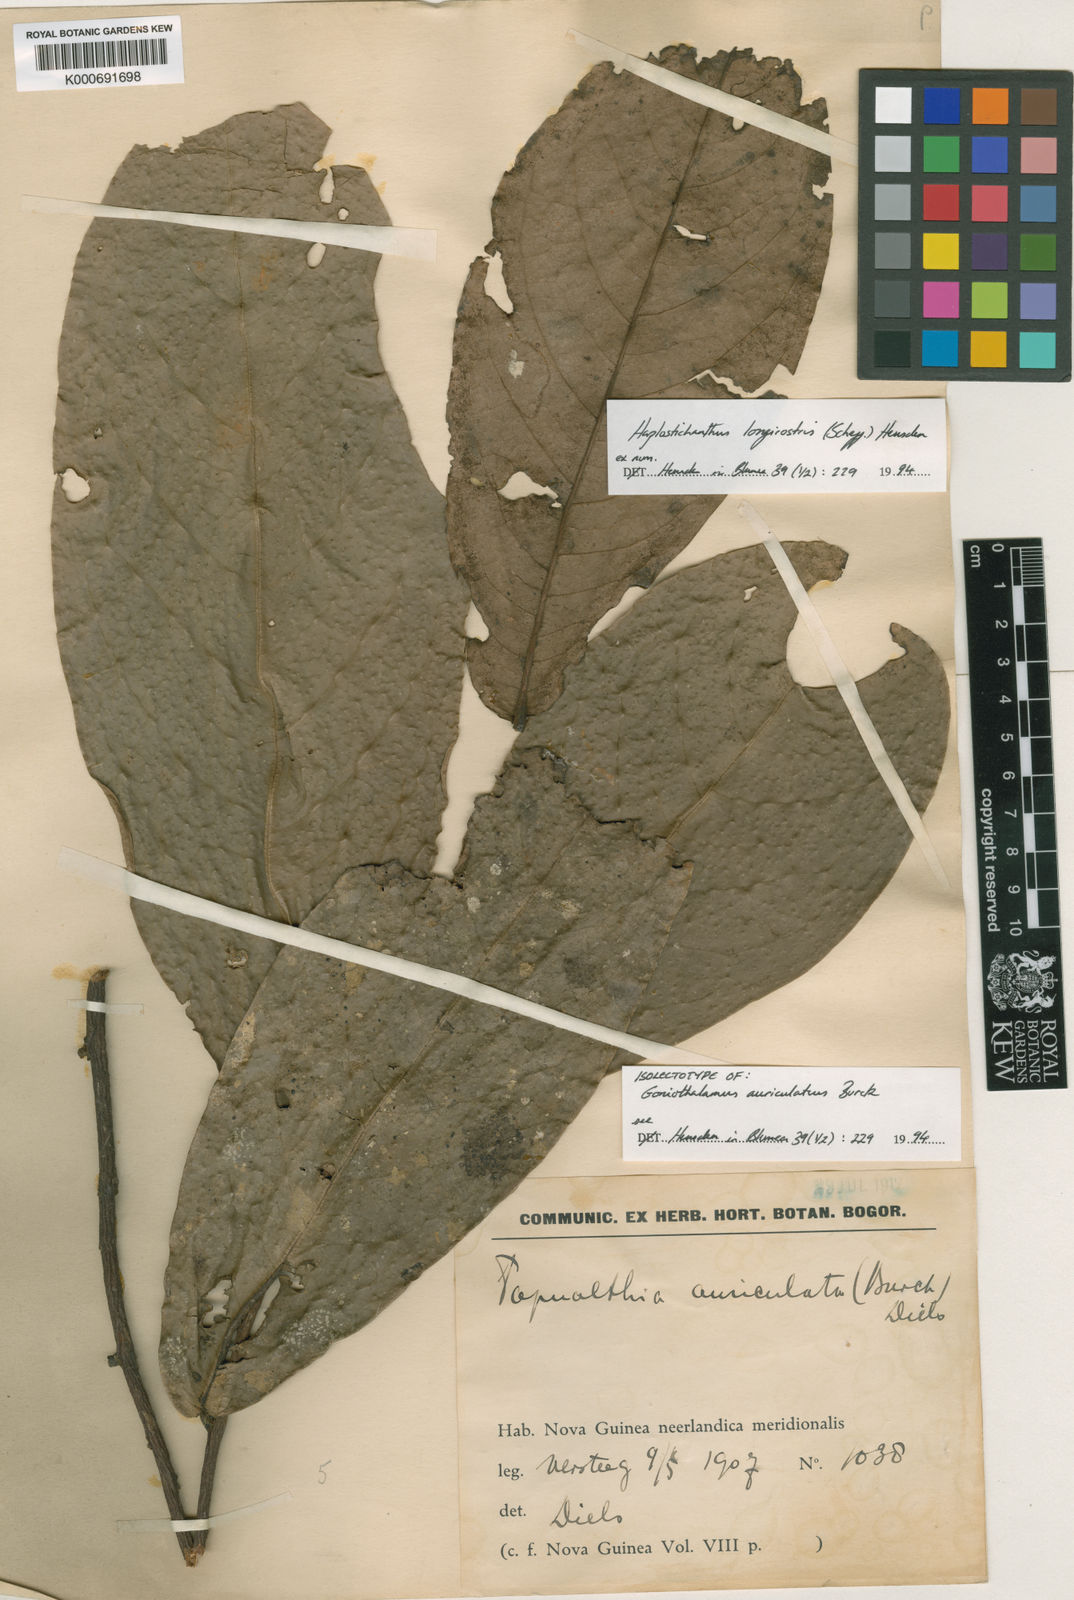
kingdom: Plantae
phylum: Tracheophyta
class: Magnoliopsida
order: Magnoliales
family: Annonaceae
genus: Haplostichanthus
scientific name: Haplostichanthus longirostris
